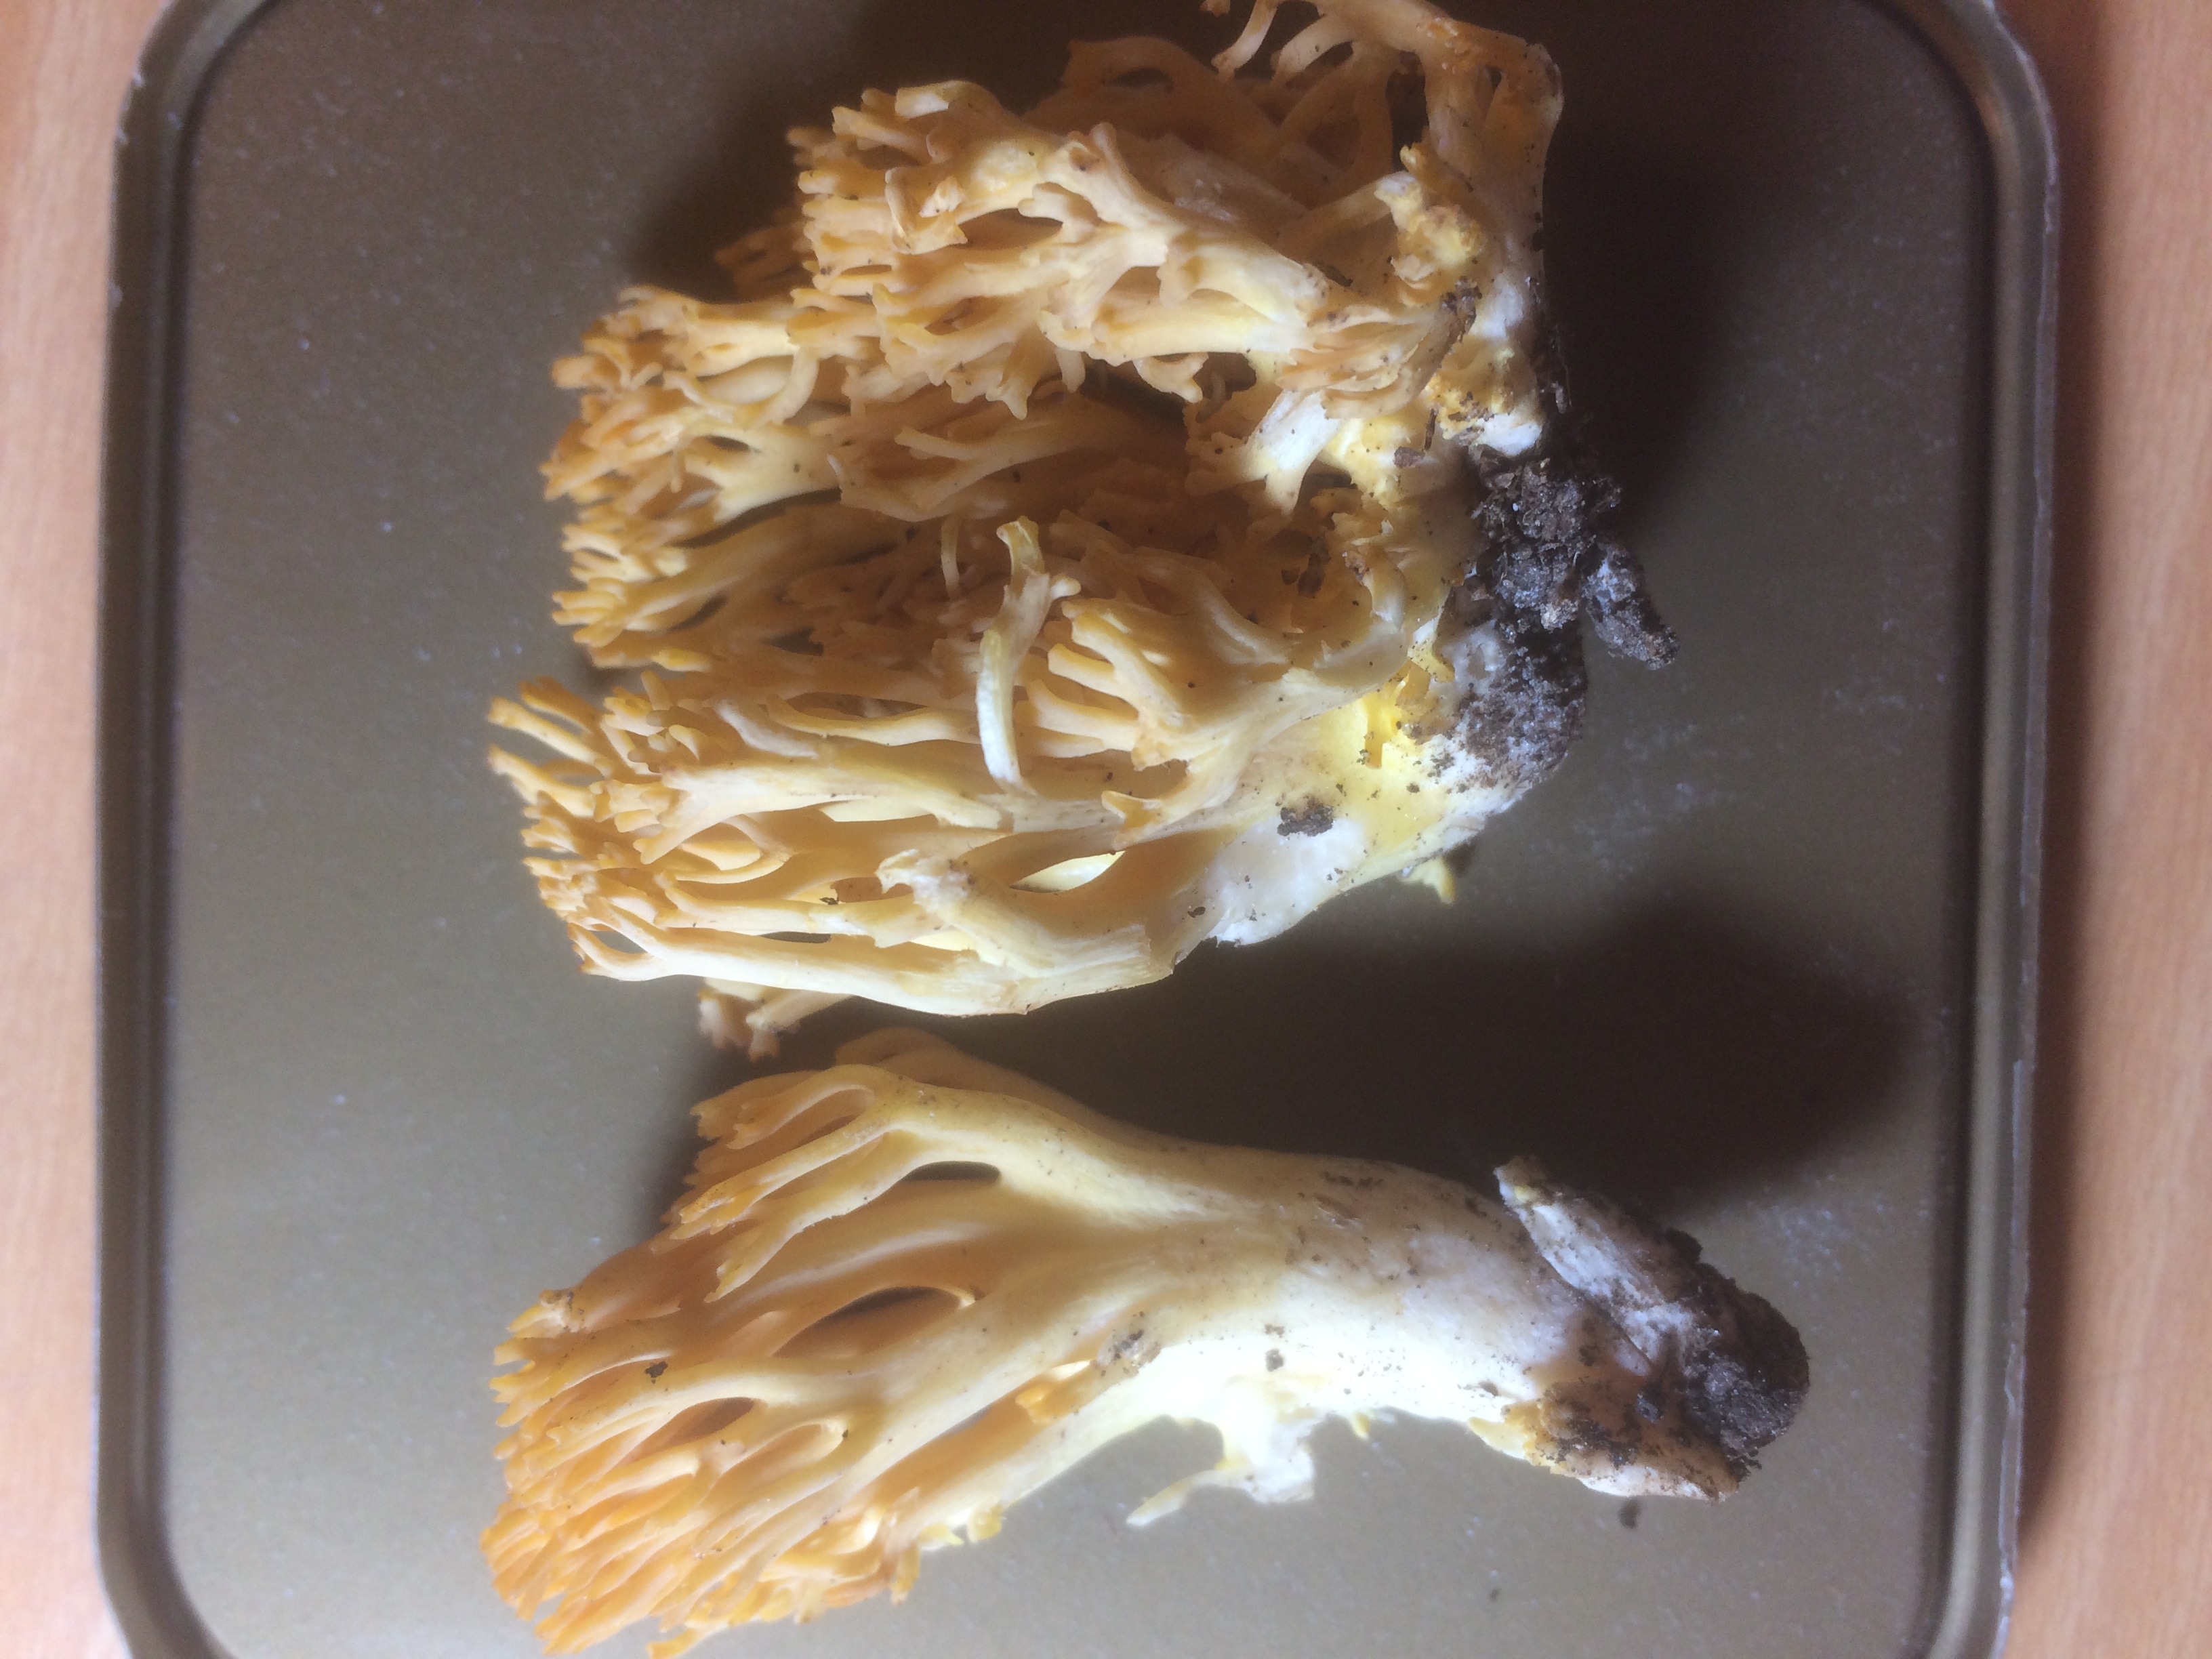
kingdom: Fungi
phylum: Basidiomycota
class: Agaricomycetes
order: Gomphales
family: Gomphaceae
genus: Ramaria
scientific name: Ramaria brunneicontusa
